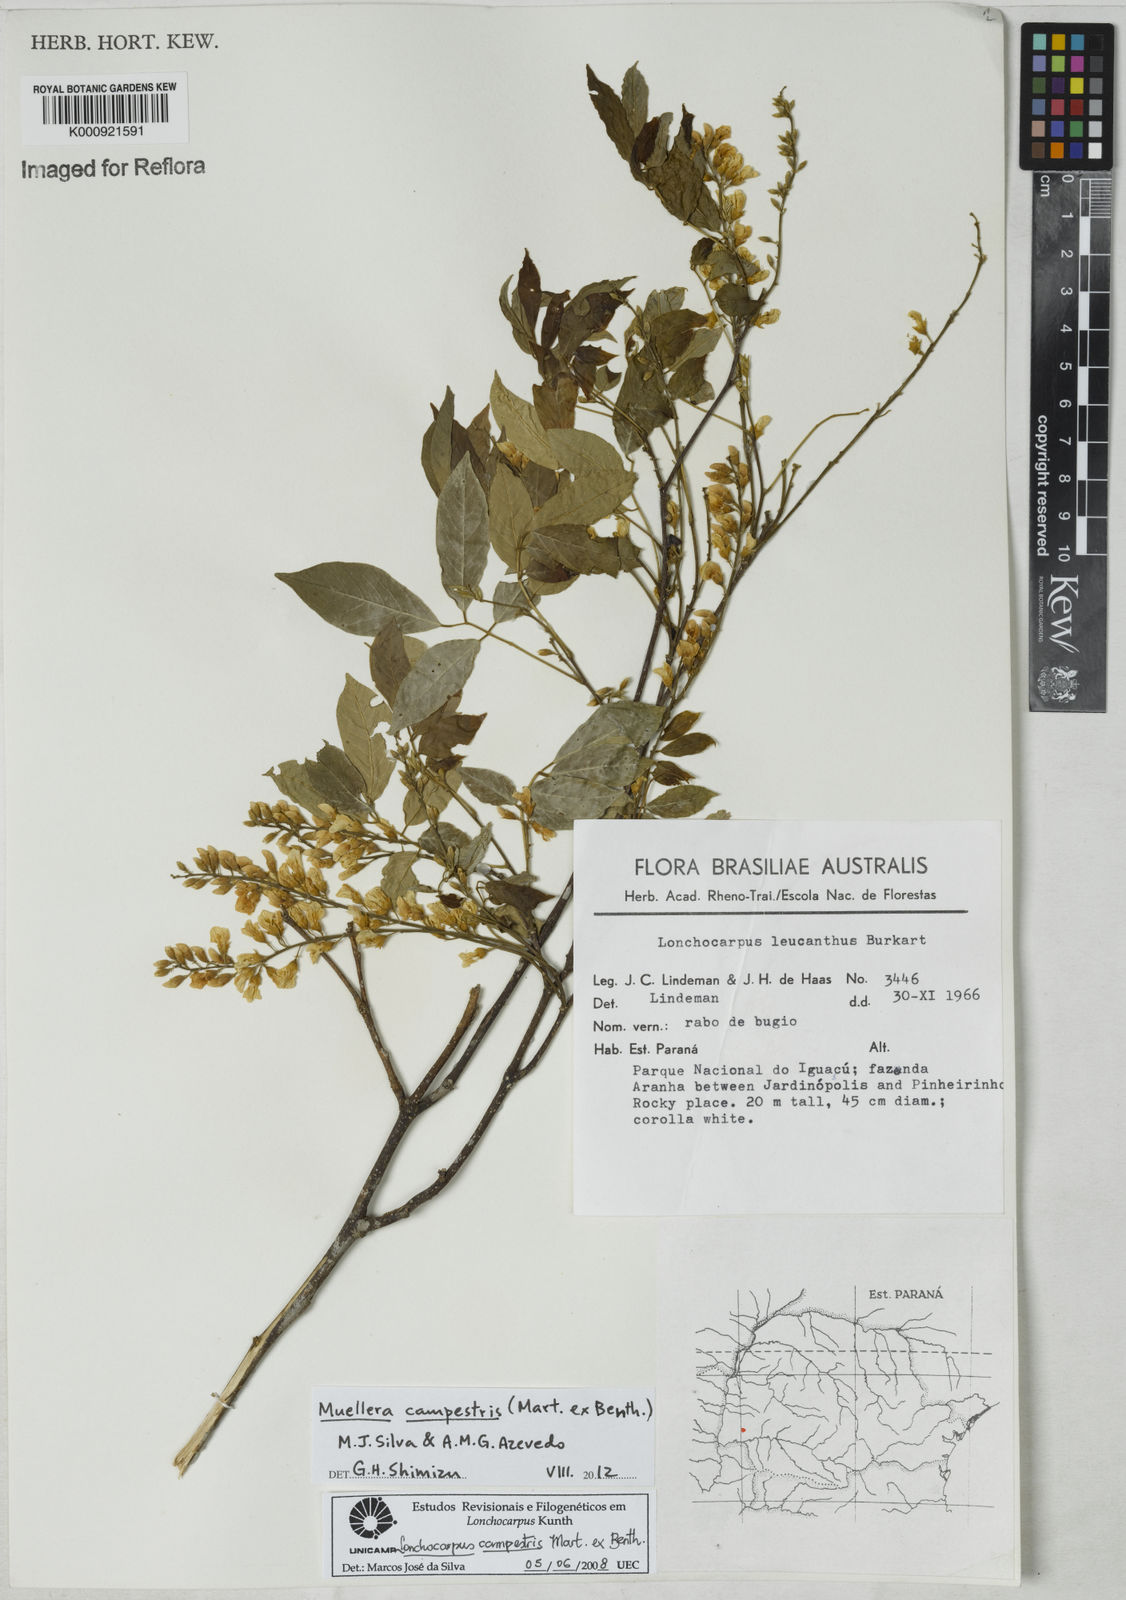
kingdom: Plantae
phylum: Tracheophyta
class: Magnoliopsida
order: Fabales
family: Fabaceae
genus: Muellera
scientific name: Muellera campestris
